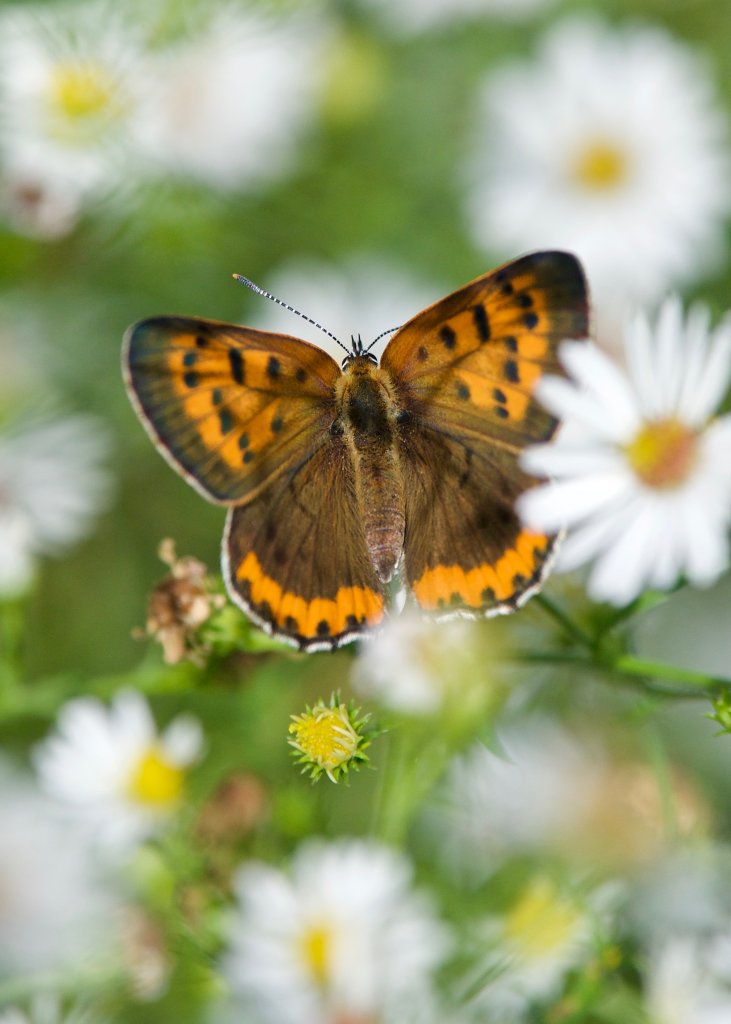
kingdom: Animalia
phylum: Arthropoda
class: Insecta
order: Lepidoptera
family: Sesiidae
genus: Sesia
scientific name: Sesia Lycaena hyllus
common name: Bronze Copper
